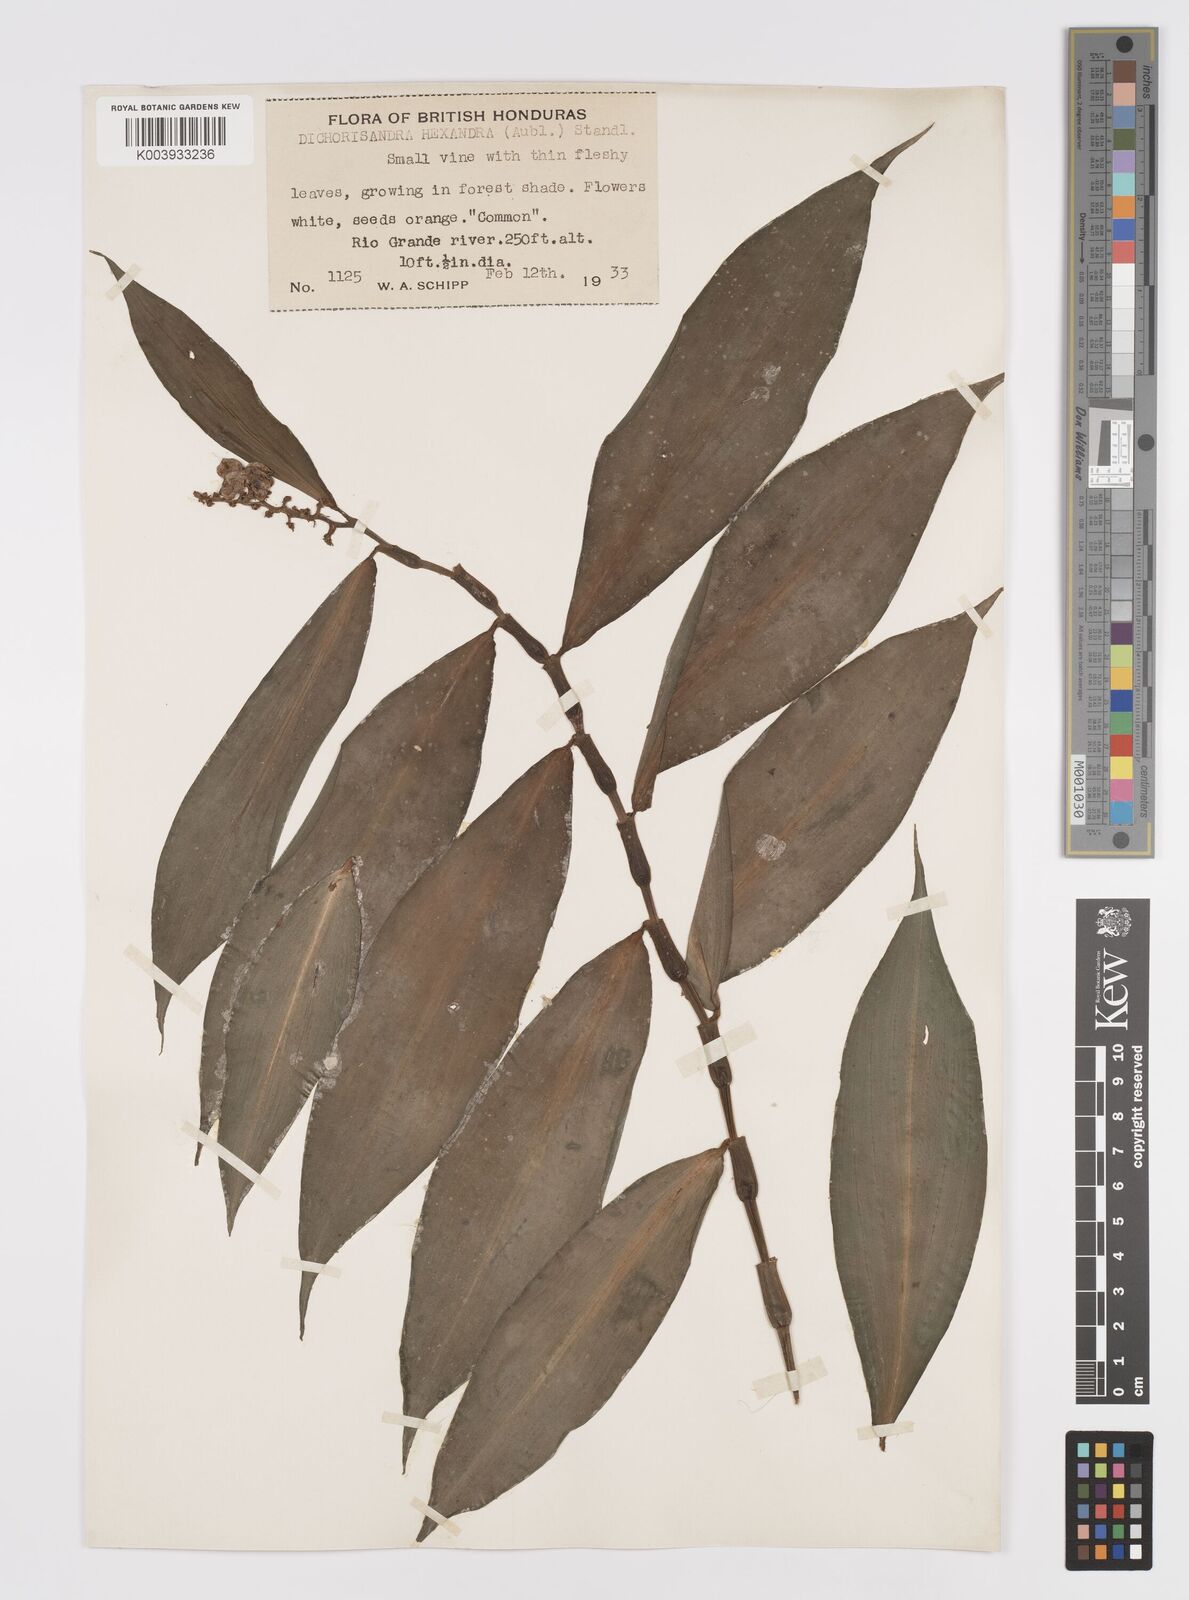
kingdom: Plantae
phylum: Tracheophyta
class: Liliopsida
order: Commelinales
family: Commelinaceae
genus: Dichorisandra
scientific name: Dichorisandra hexandra
